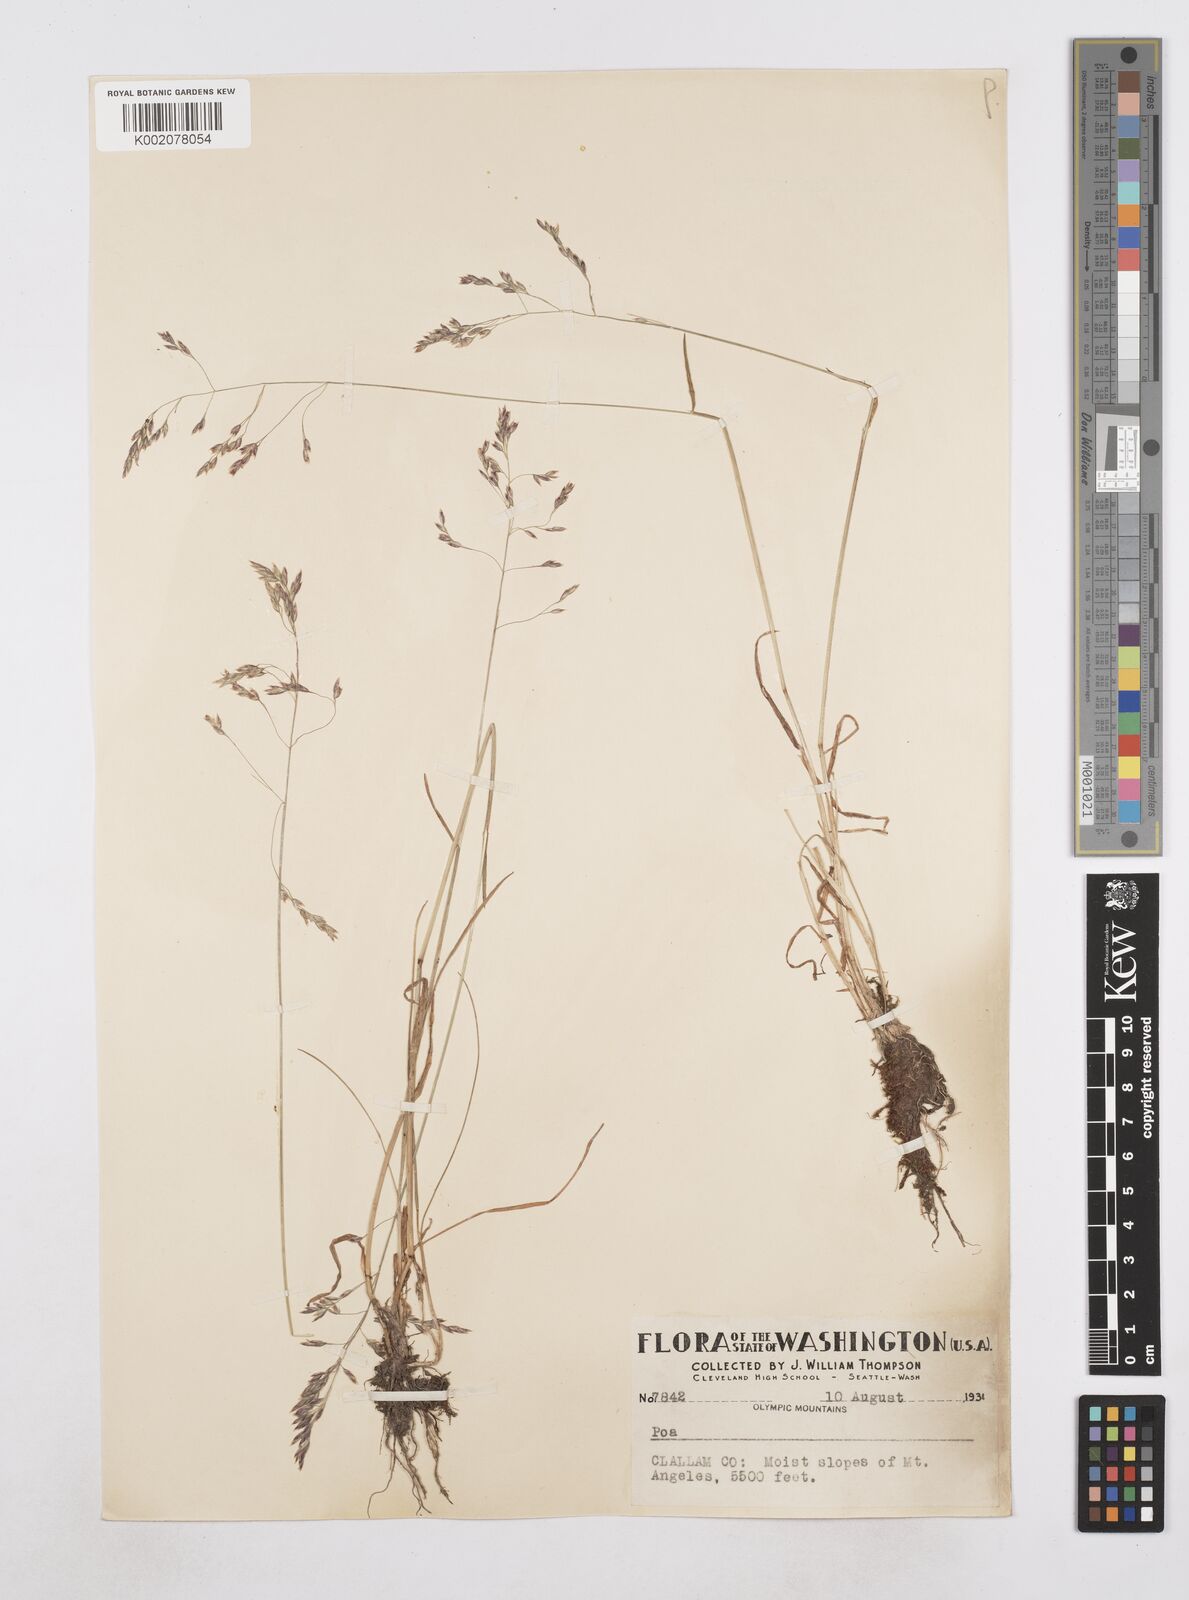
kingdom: Plantae
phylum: Tracheophyta
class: Liliopsida
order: Poales
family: Poaceae
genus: Poa
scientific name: Poa
